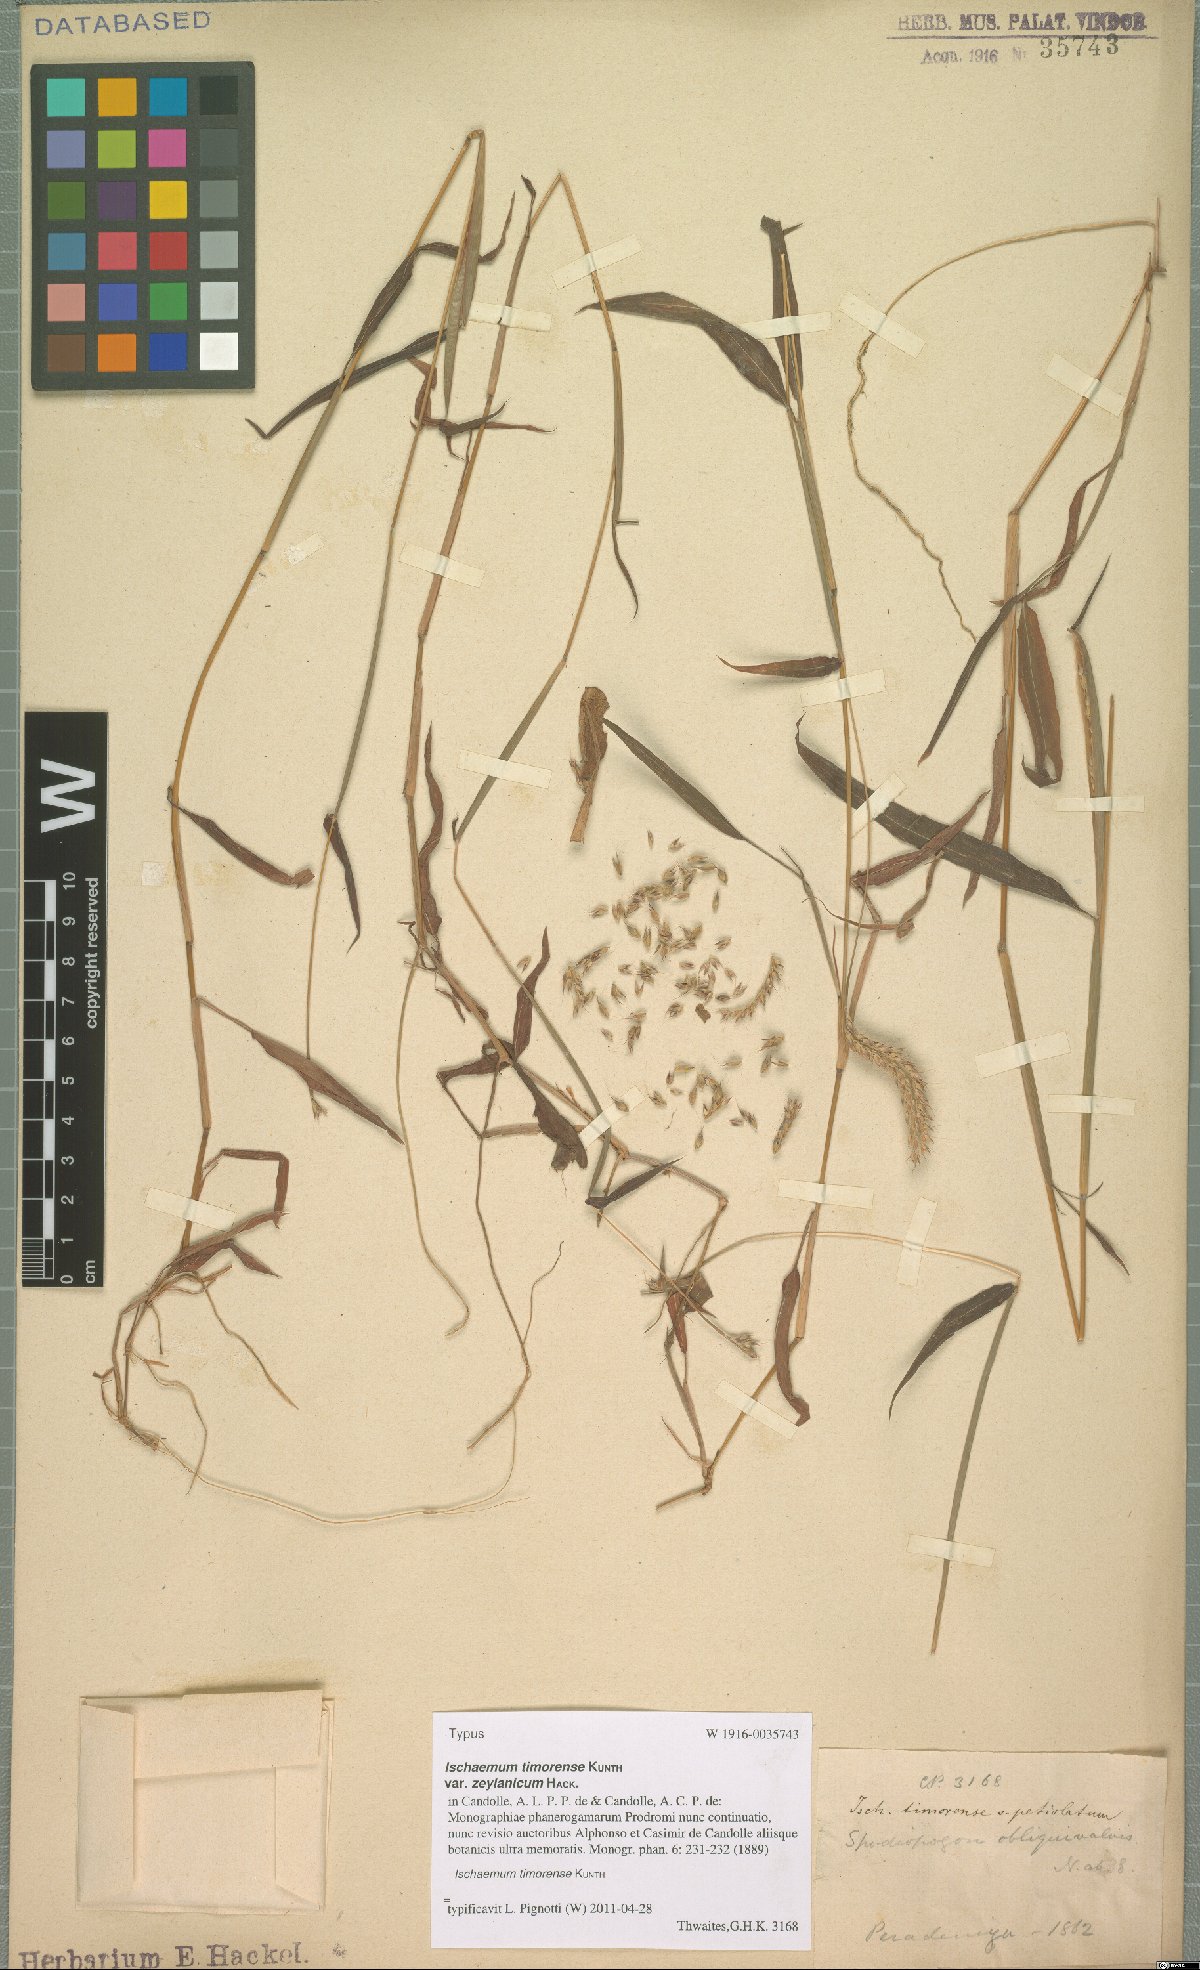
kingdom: Plantae
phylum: Tracheophyta
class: Liliopsida
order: Poales
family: Poaceae
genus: Ischaemum
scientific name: Ischaemum timorense
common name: Stalkleaf murainagrass
